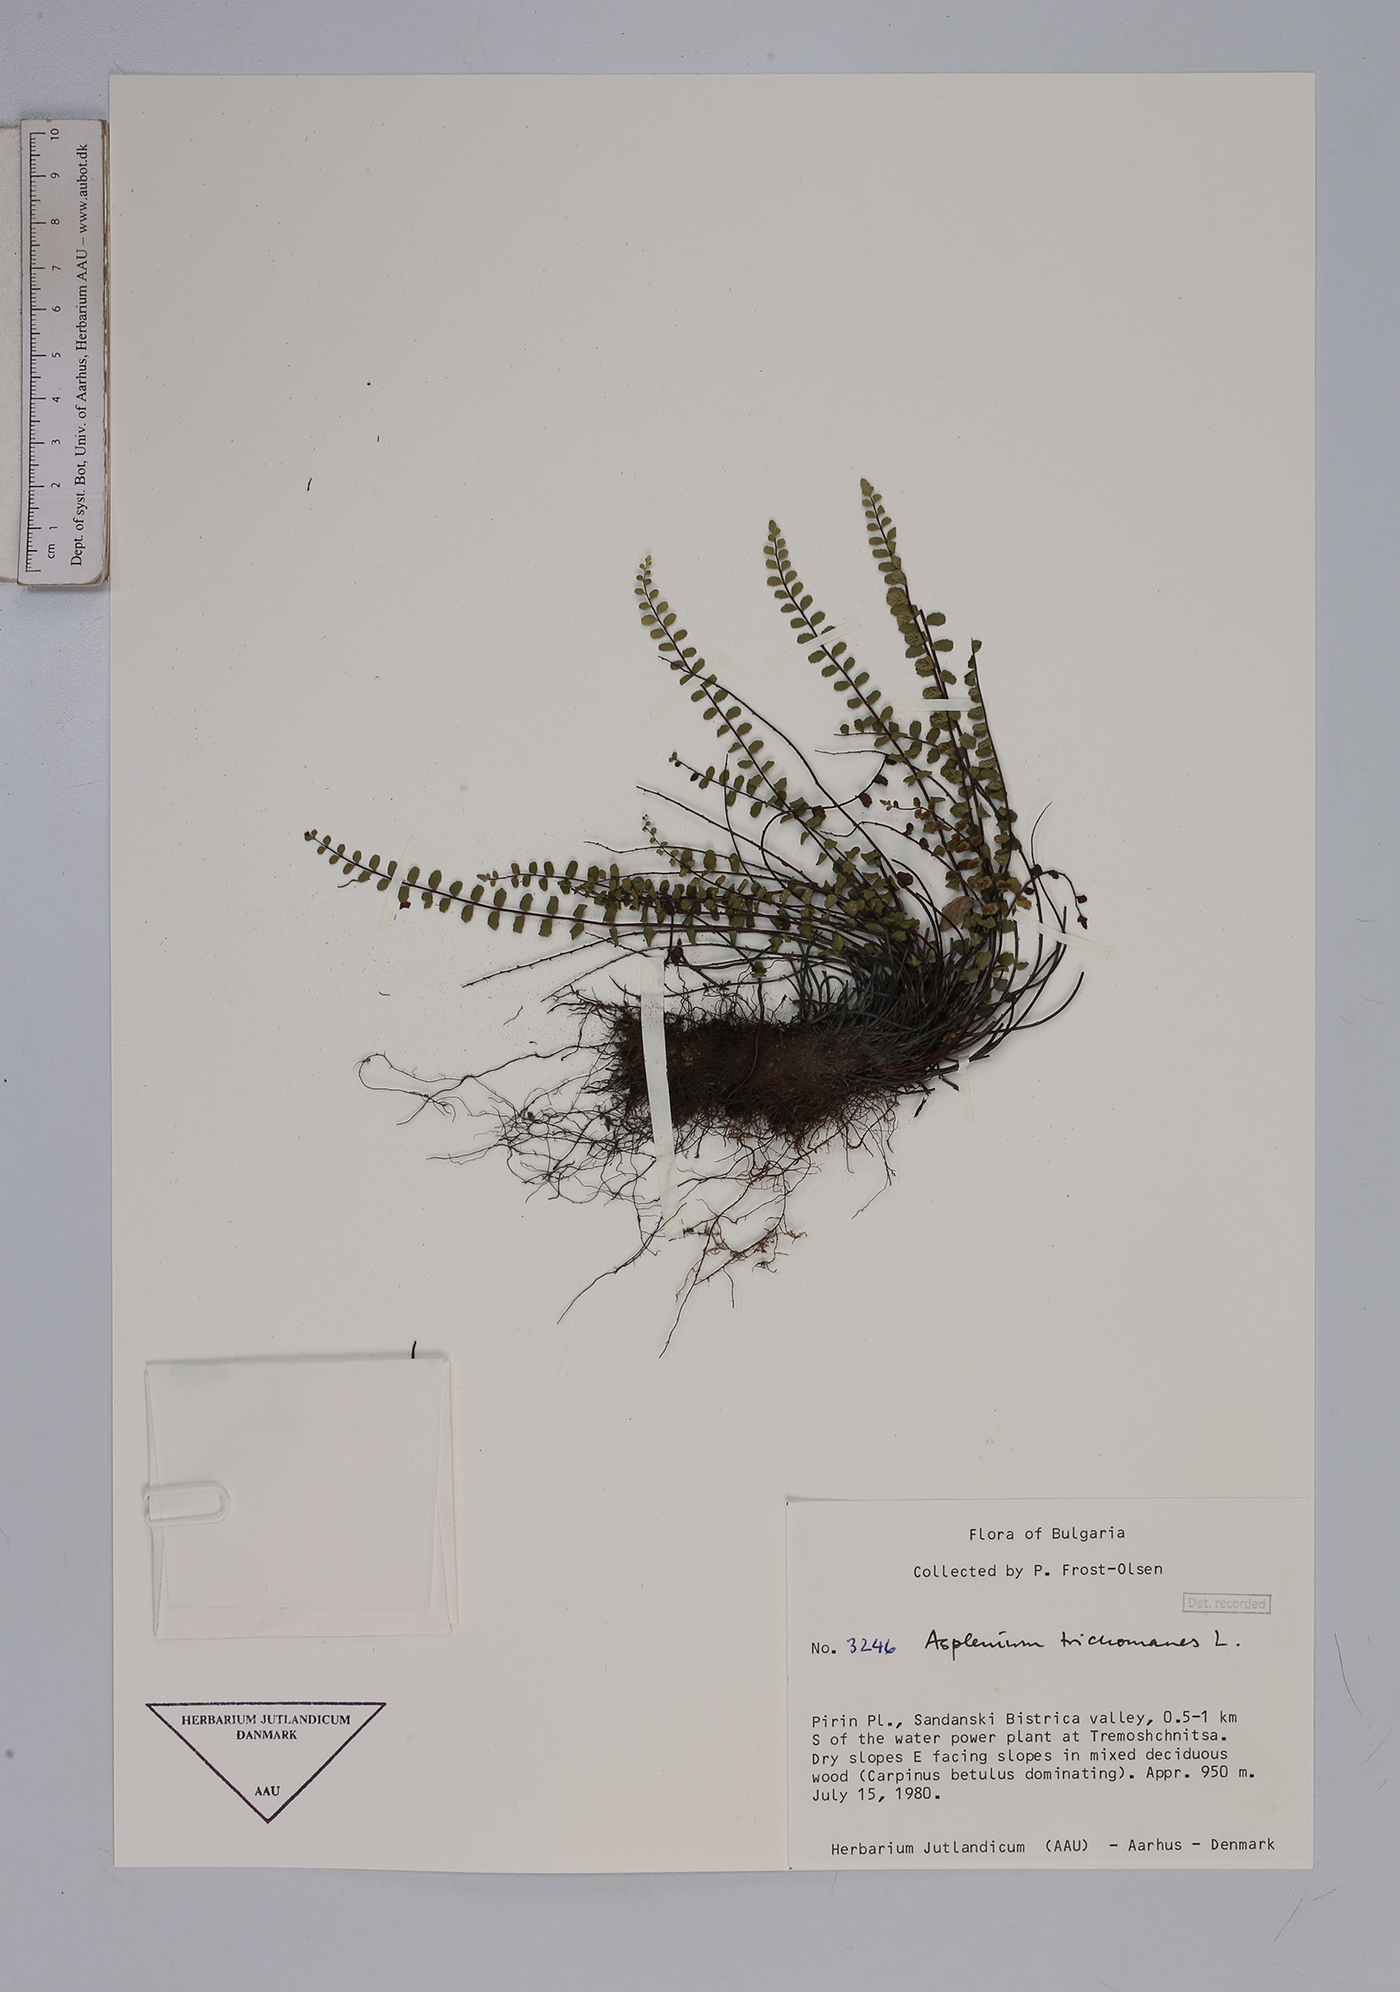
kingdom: Plantae
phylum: Tracheophyta
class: Polypodiopsida
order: Polypodiales
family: Aspleniaceae
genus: Asplenium
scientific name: Asplenium trichomanes
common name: Maidenhair spleenwort
